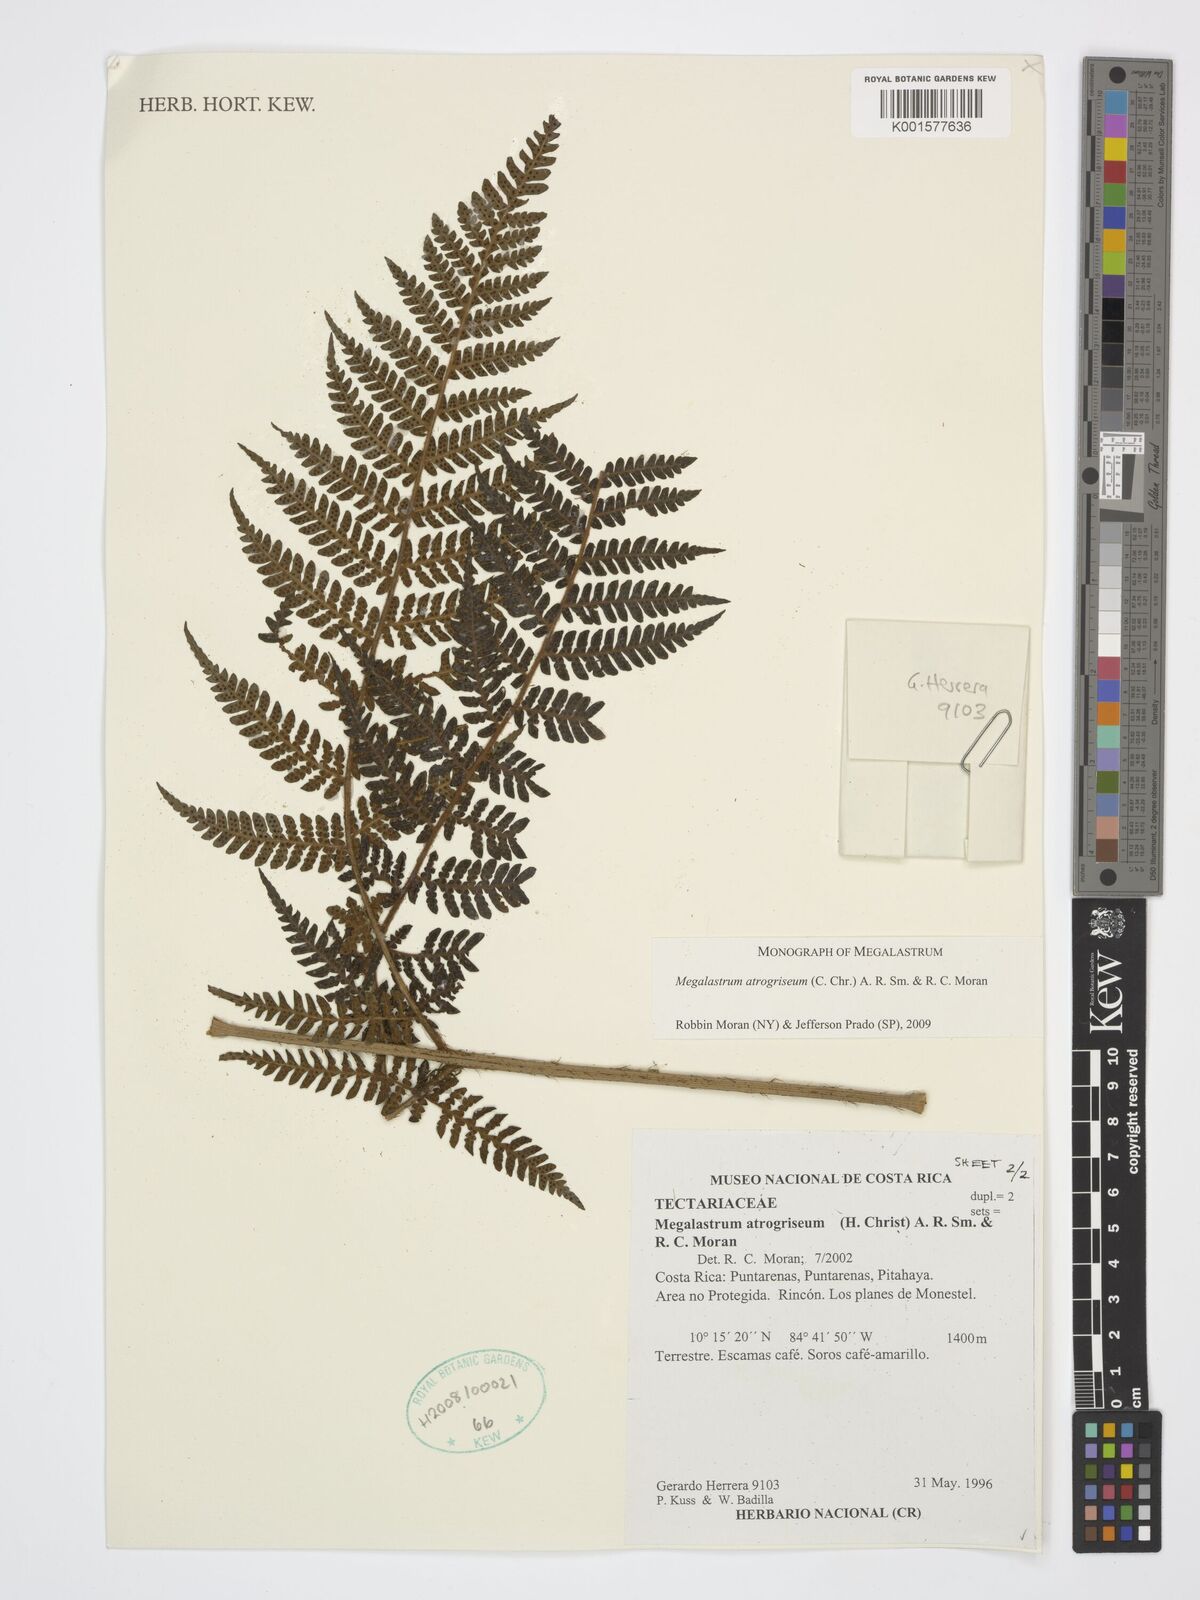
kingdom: Plantae
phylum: Tracheophyta
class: Polypodiopsida
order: Polypodiales
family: Dryopteridaceae
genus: Megalastrum
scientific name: Megalastrum atrogriseum
